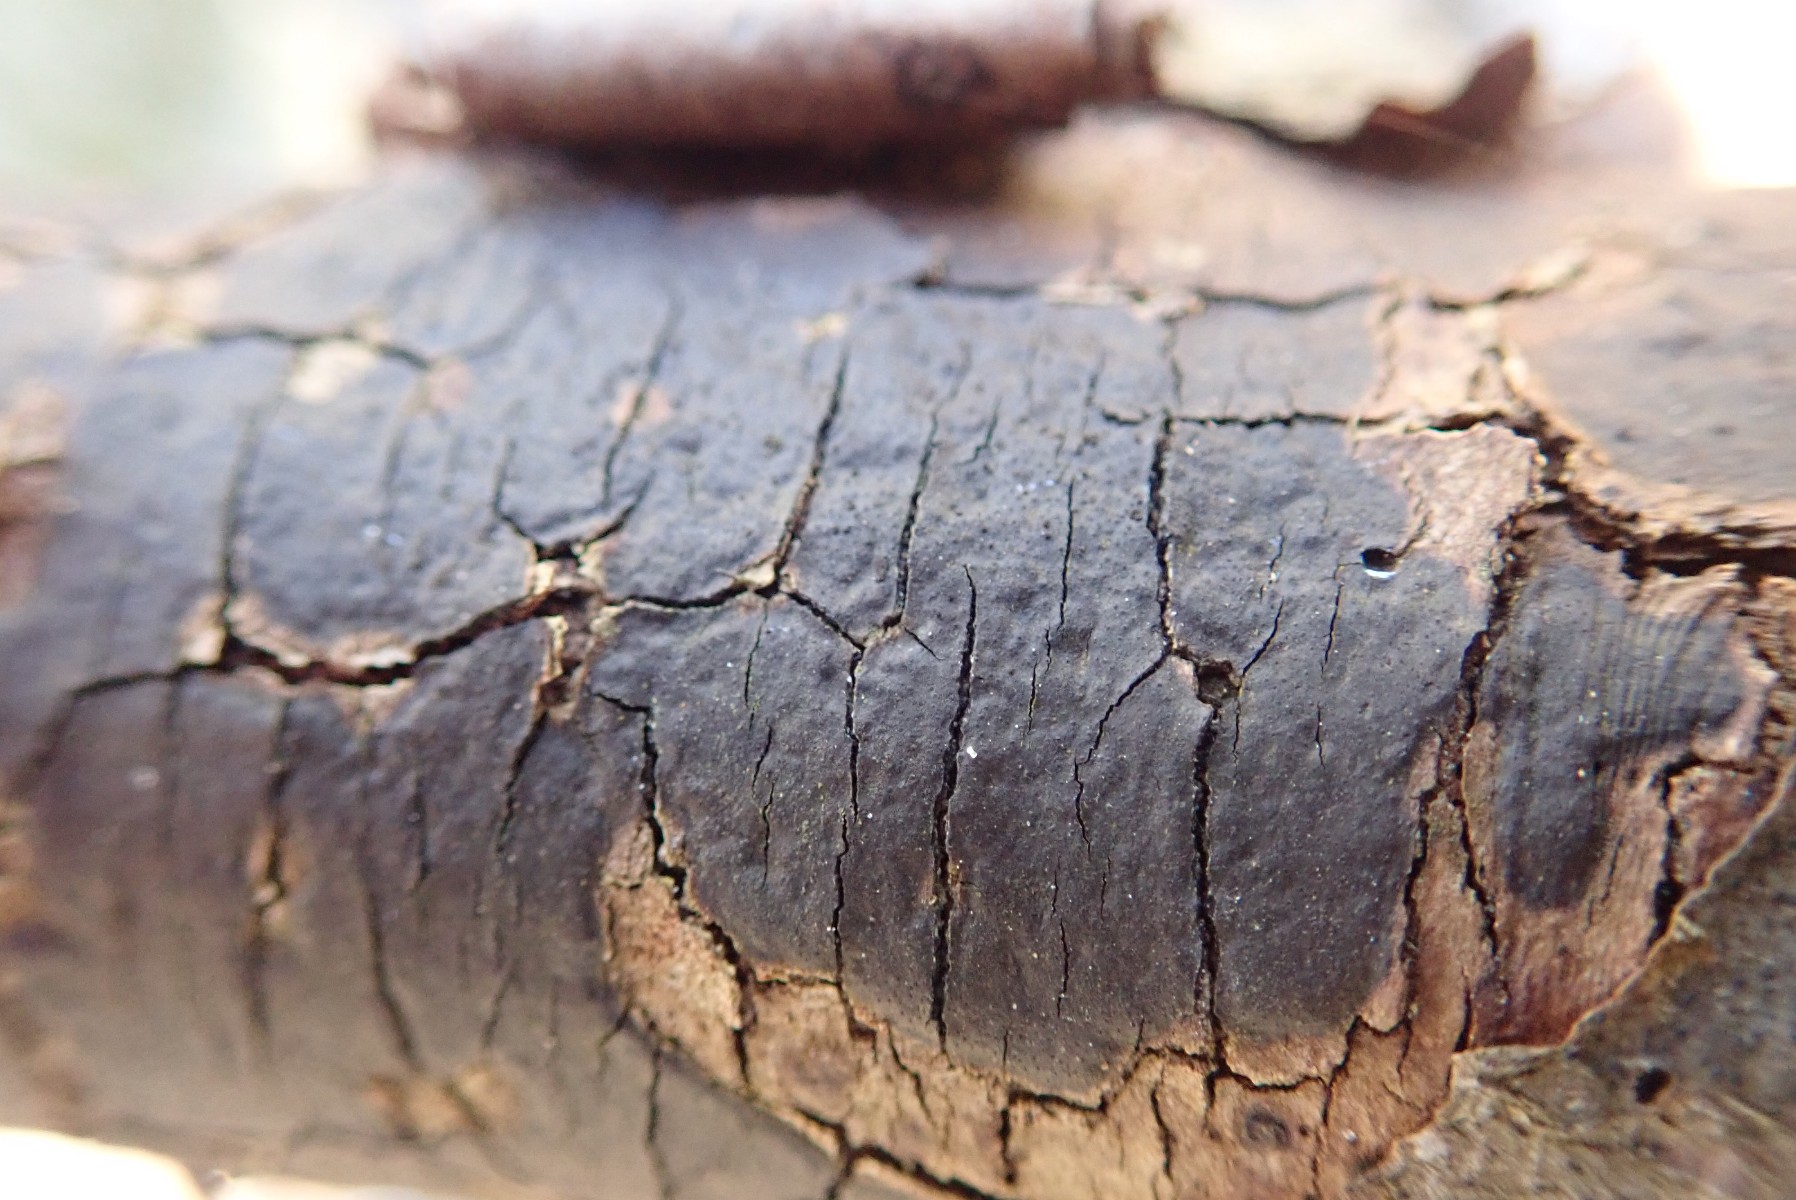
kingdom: Fungi
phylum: Ascomycota
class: Sordariomycetes
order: Xylariales
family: Diatrypaceae
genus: Diatrype
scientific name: Diatrype decorticata
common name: barksprænger-kulskorpe
